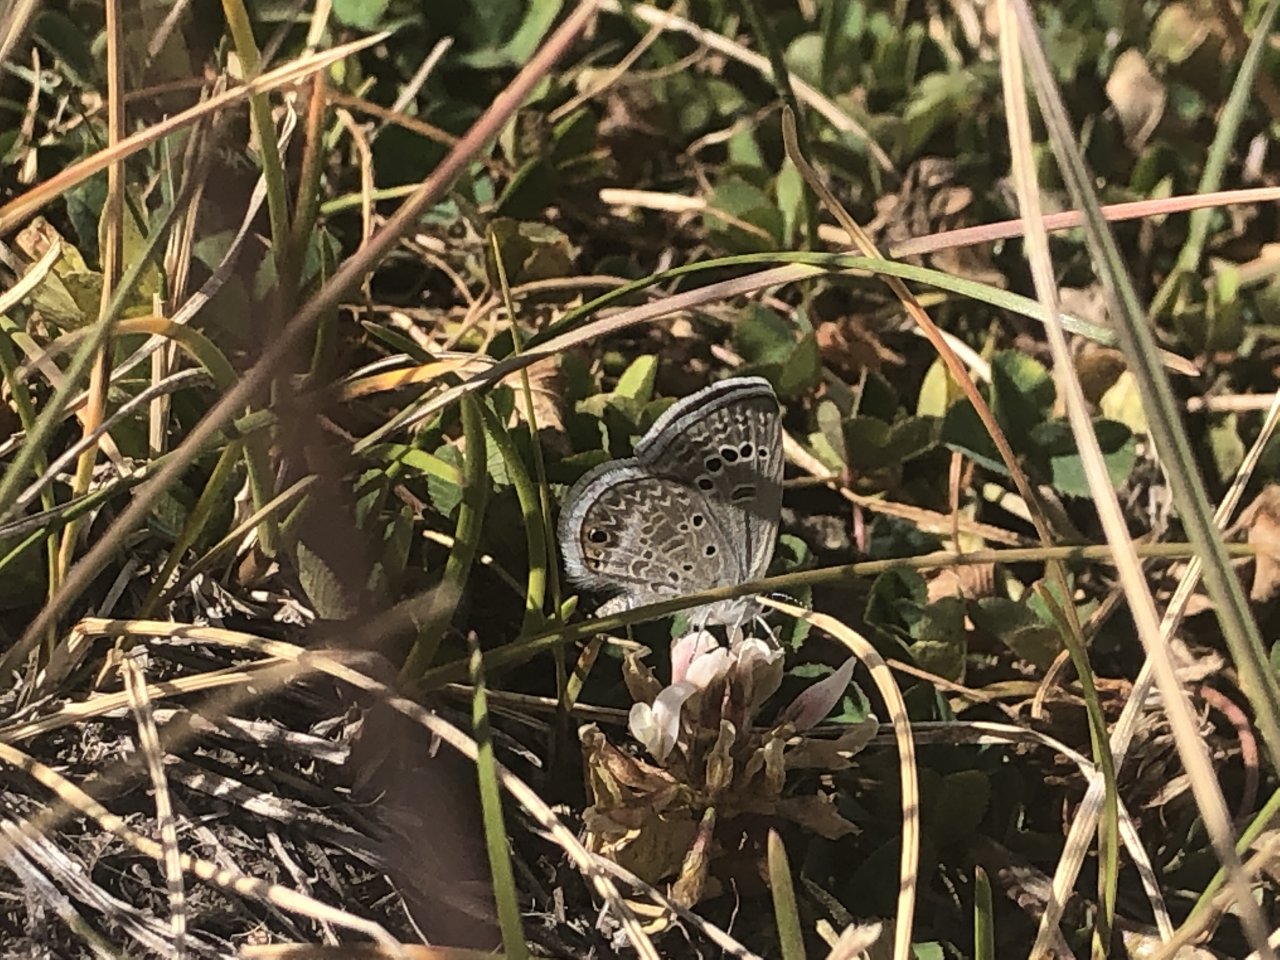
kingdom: Animalia
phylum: Arthropoda
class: Insecta
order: Lepidoptera
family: Lycaenidae
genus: Echinargus
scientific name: Echinargus isola
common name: Reakirt's Blue
